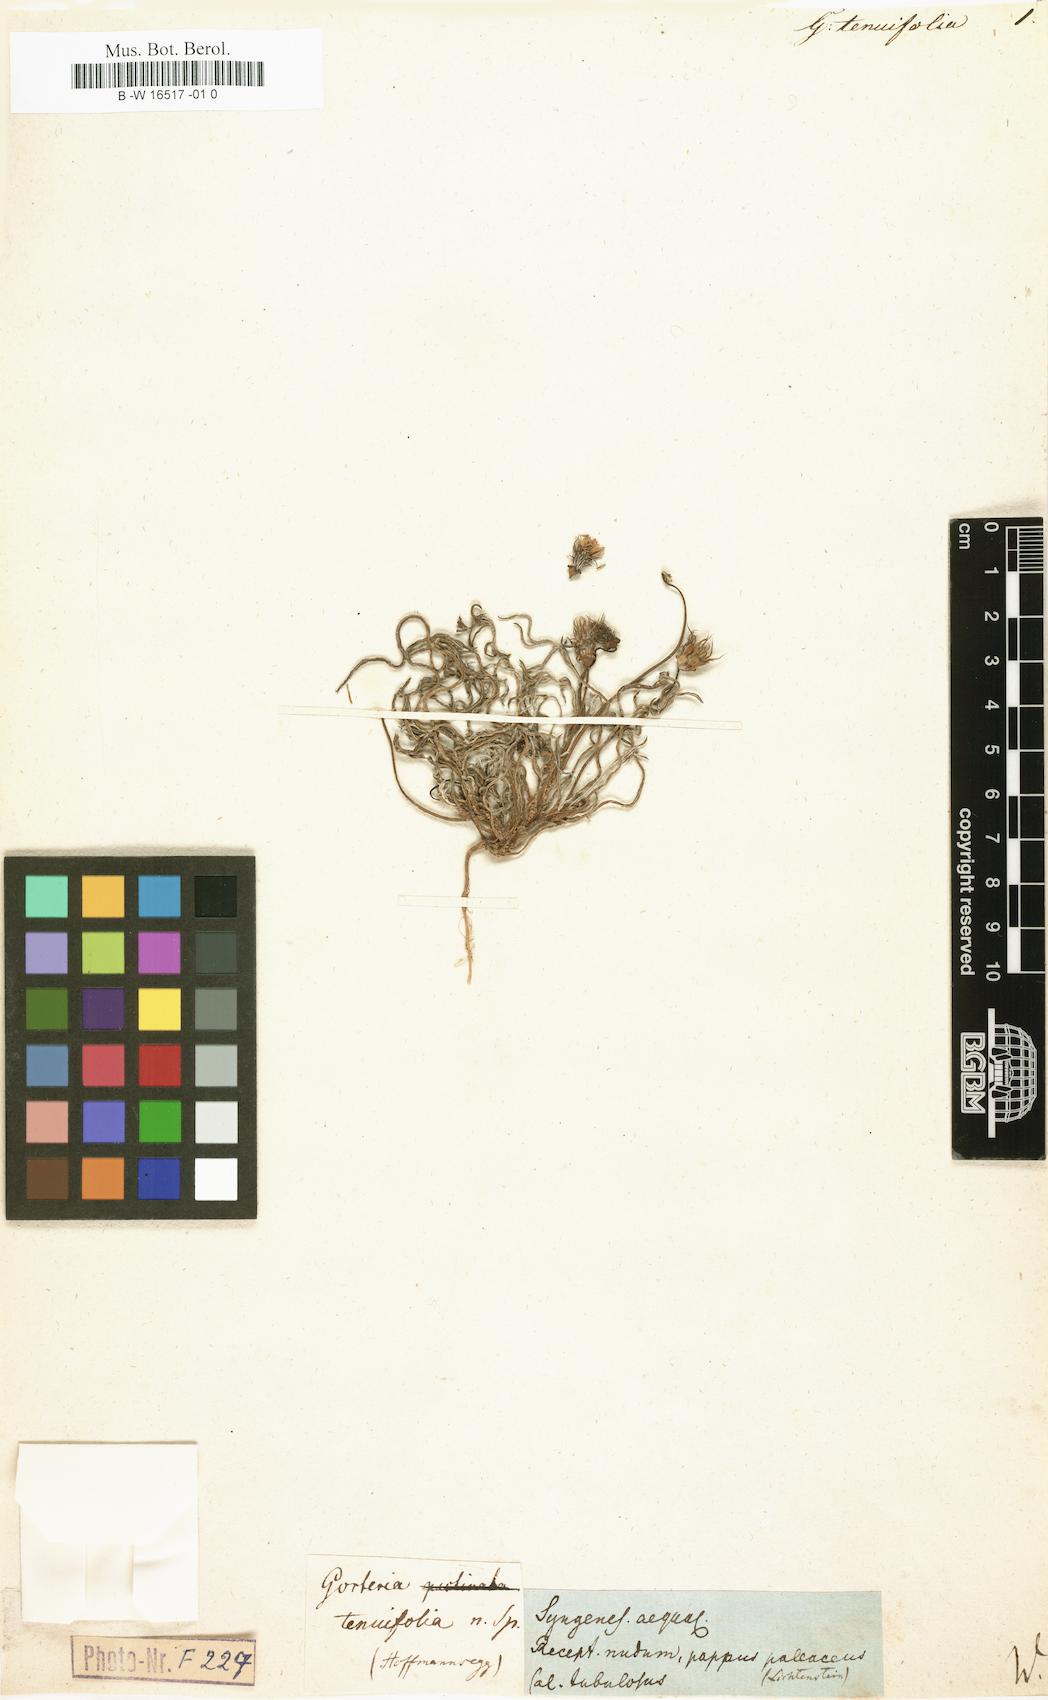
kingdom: Plantae
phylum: Tracheophyta
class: Magnoliopsida
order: Asterales
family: Asteraceae
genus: Gazania
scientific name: Gazania tenuifolia
